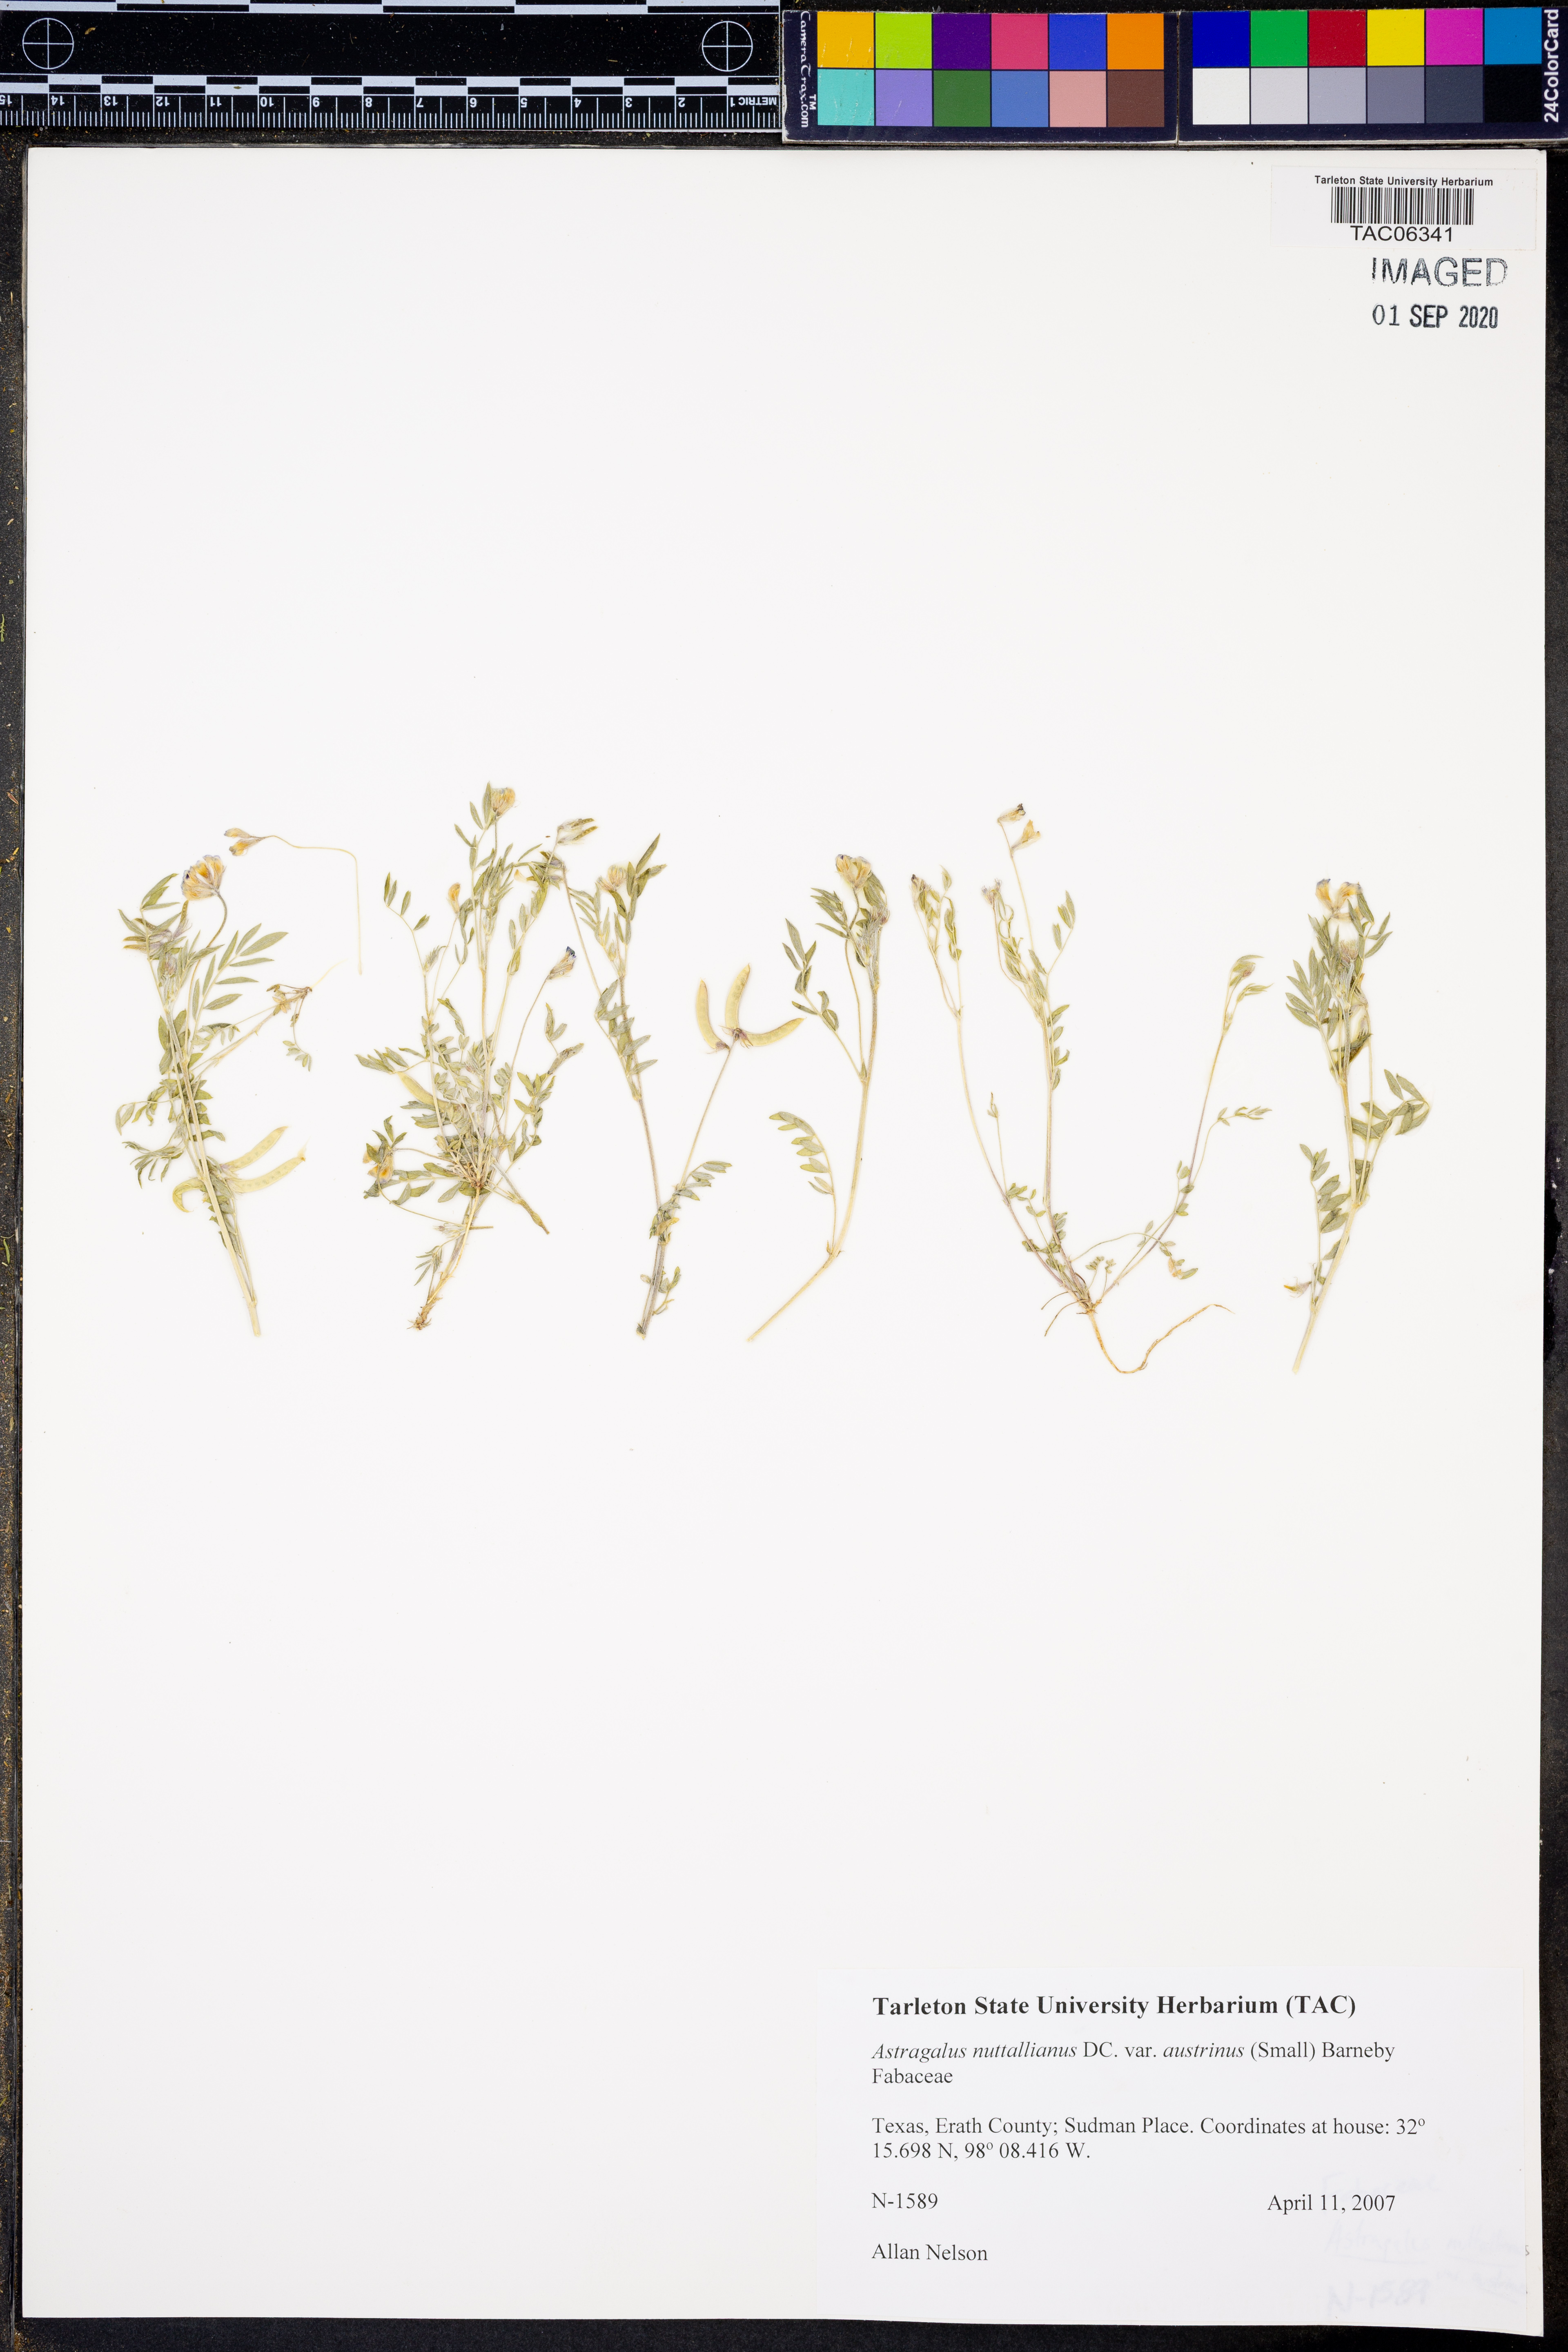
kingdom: Plantae
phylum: Tracheophyta
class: Magnoliopsida
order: Fabales
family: Fabaceae
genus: Astragalus
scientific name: Astragalus nuttallianus
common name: Smallflowered milkvetch
